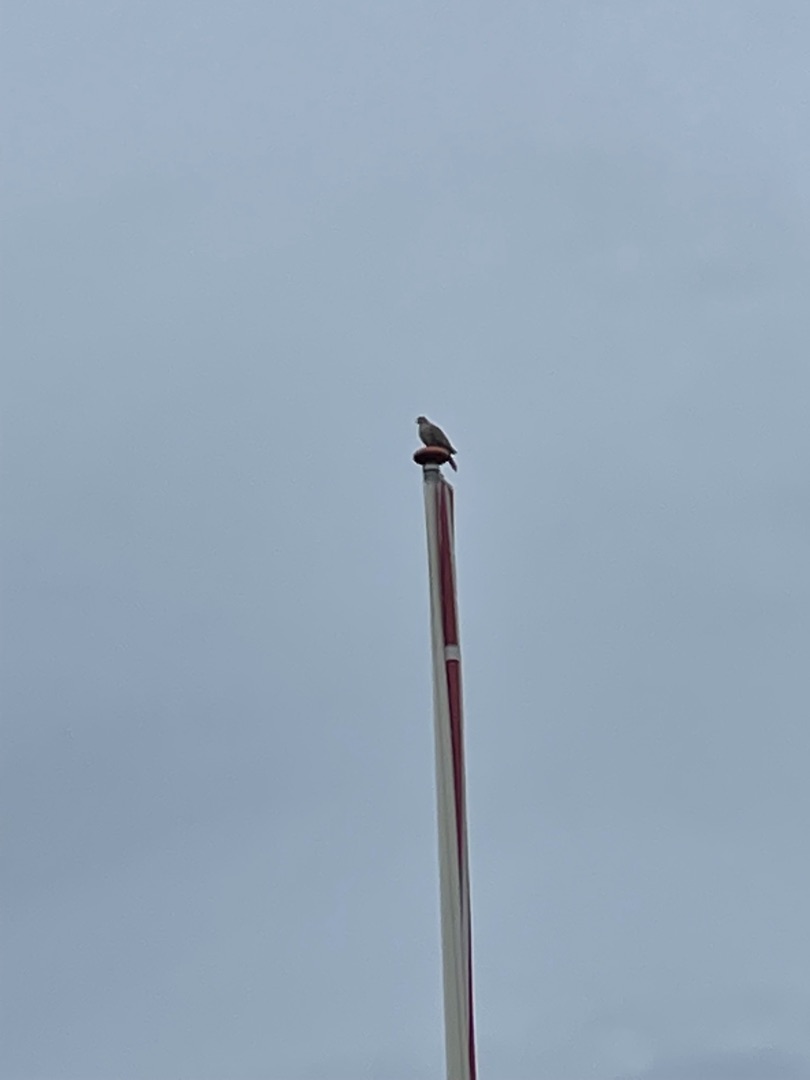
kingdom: Animalia
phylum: Chordata
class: Aves
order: Columbiformes
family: Columbidae
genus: Streptopelia
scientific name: Streptopelia decaocto
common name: Tyrkerdue
